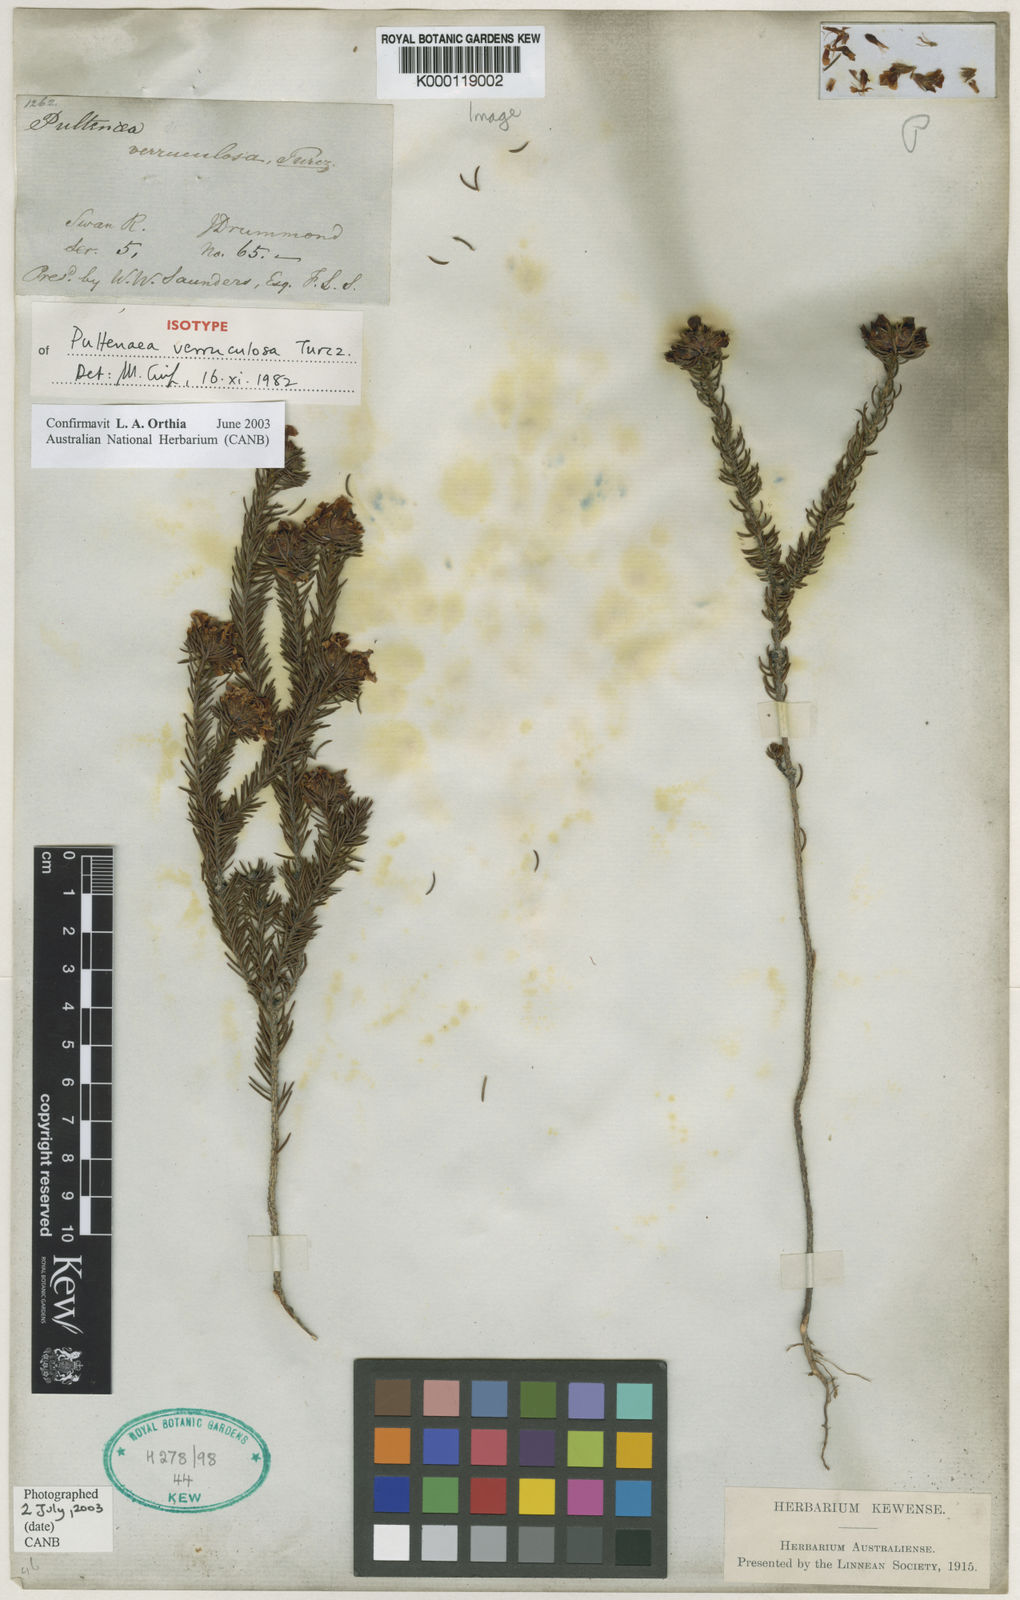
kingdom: Plantae
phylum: Tracheophyta
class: Magnoliopsida
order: Fabales
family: Fabaceae
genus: Pultenaea
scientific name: Pultenaea verruculosa
